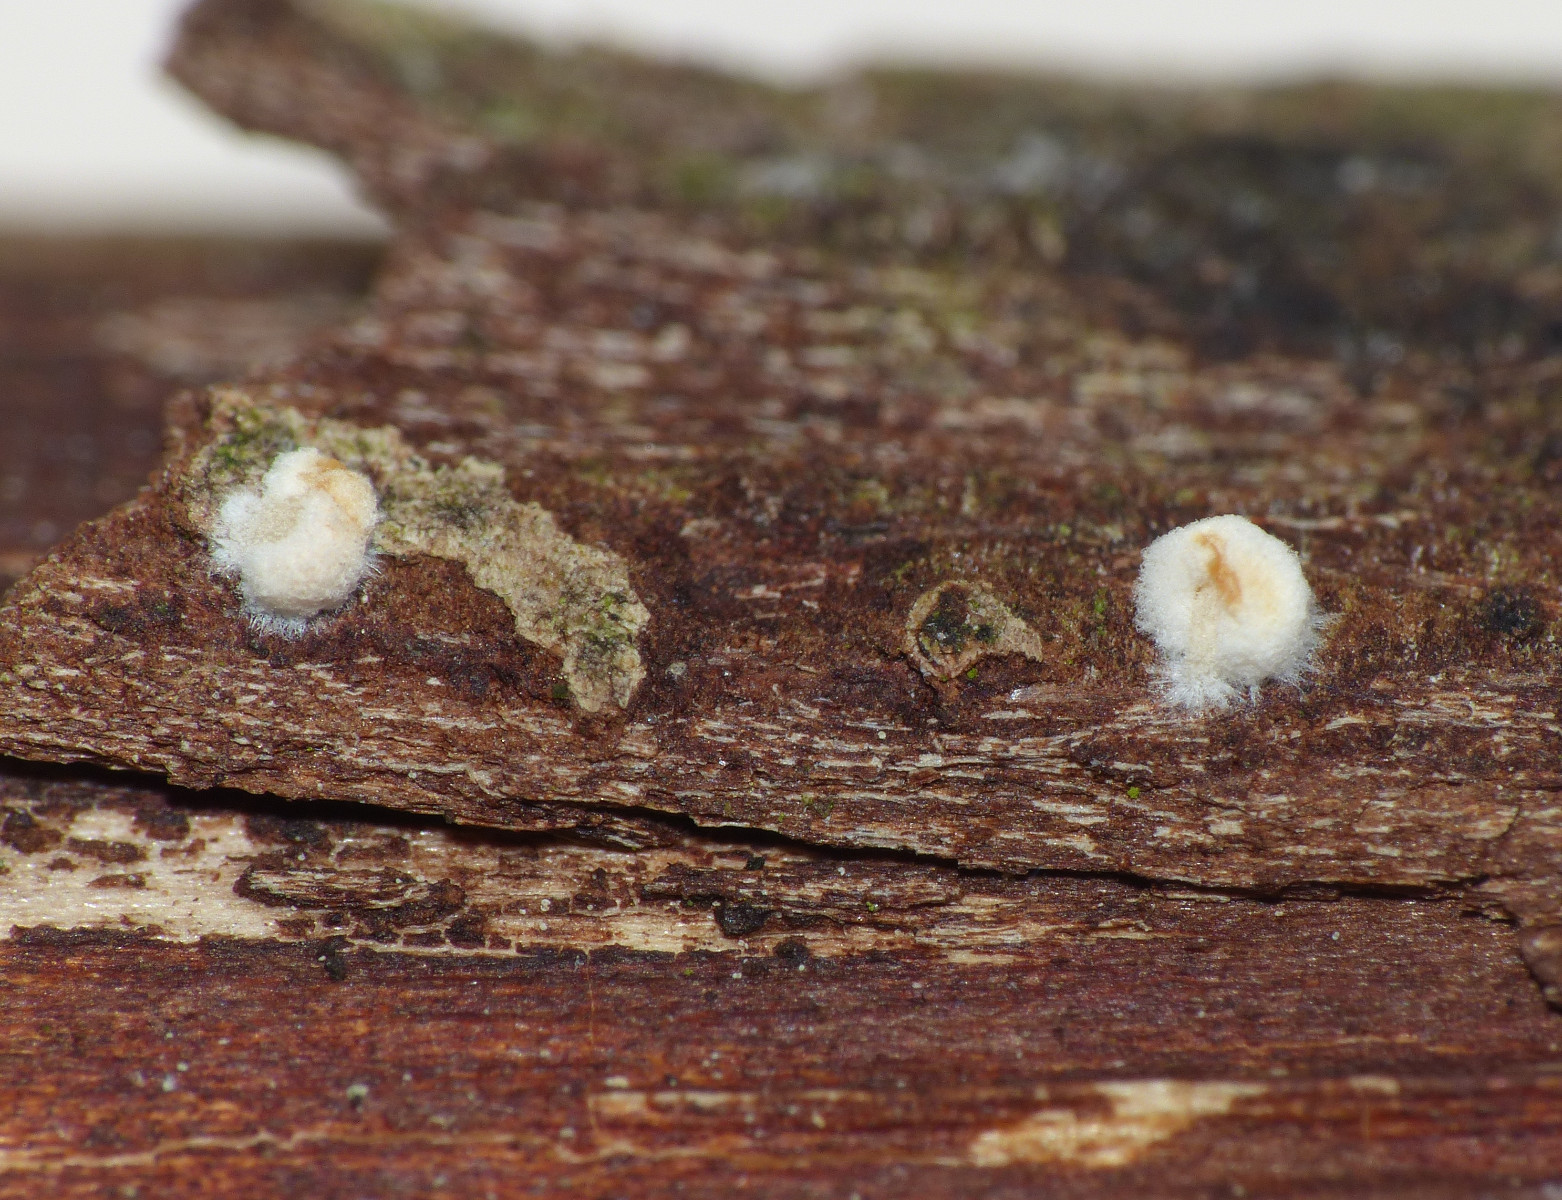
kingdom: Fungi
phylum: Basidiomycota
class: Agaricomycetes
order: Agaricales
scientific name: Agaricales
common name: champignonordenen
